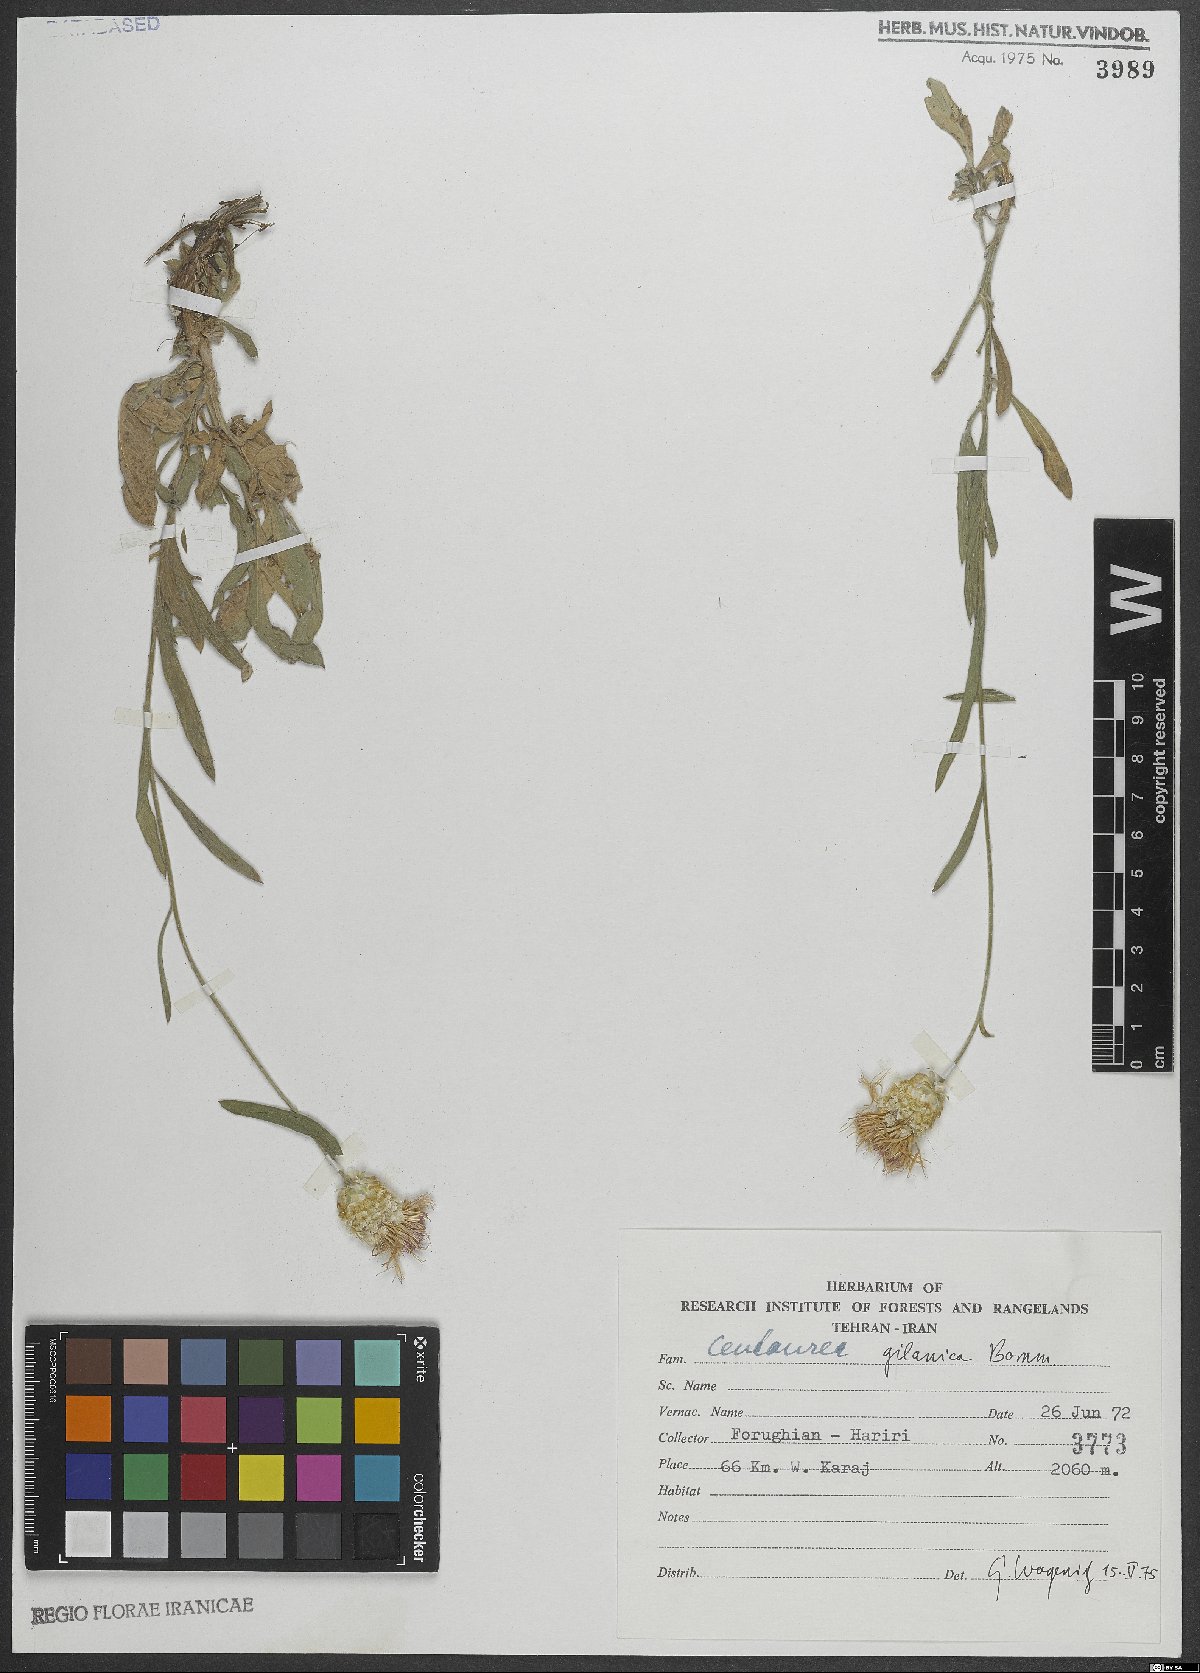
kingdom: Plantae
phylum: Tracheophyta
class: Magnoliopsida
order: Asterales
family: Asteraceae
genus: Psephellus
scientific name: Psephellus gilanicus
